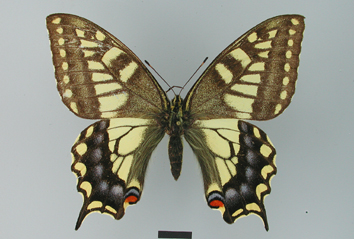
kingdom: Animalia
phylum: Arthropoda
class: Insecta
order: Lepidoptera
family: Papilionidae
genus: Papilio
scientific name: Papilio machaon
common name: Swallowtail
